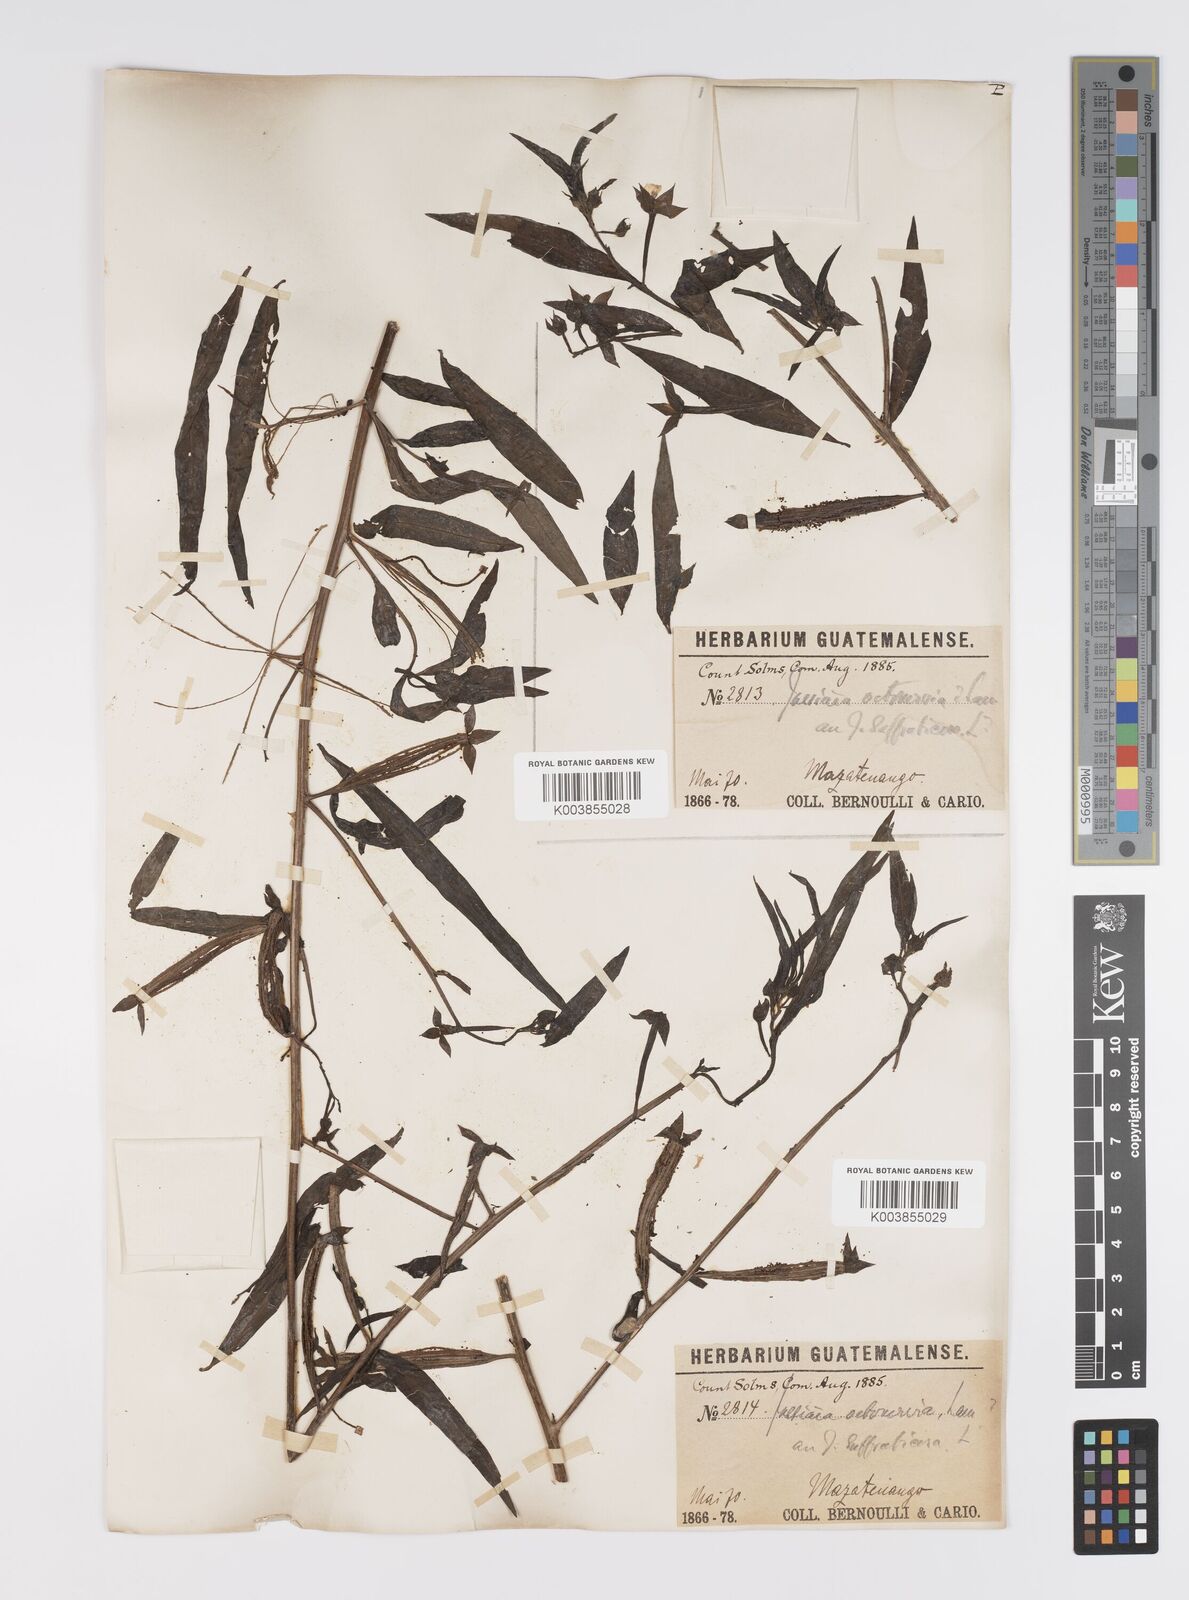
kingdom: Plantae
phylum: Tracheophyta
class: Magnoliopsida
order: Myrtales
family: Onagraceae
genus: Ludwigia
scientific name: Ludwigia octovalvis
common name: Water-primrose
